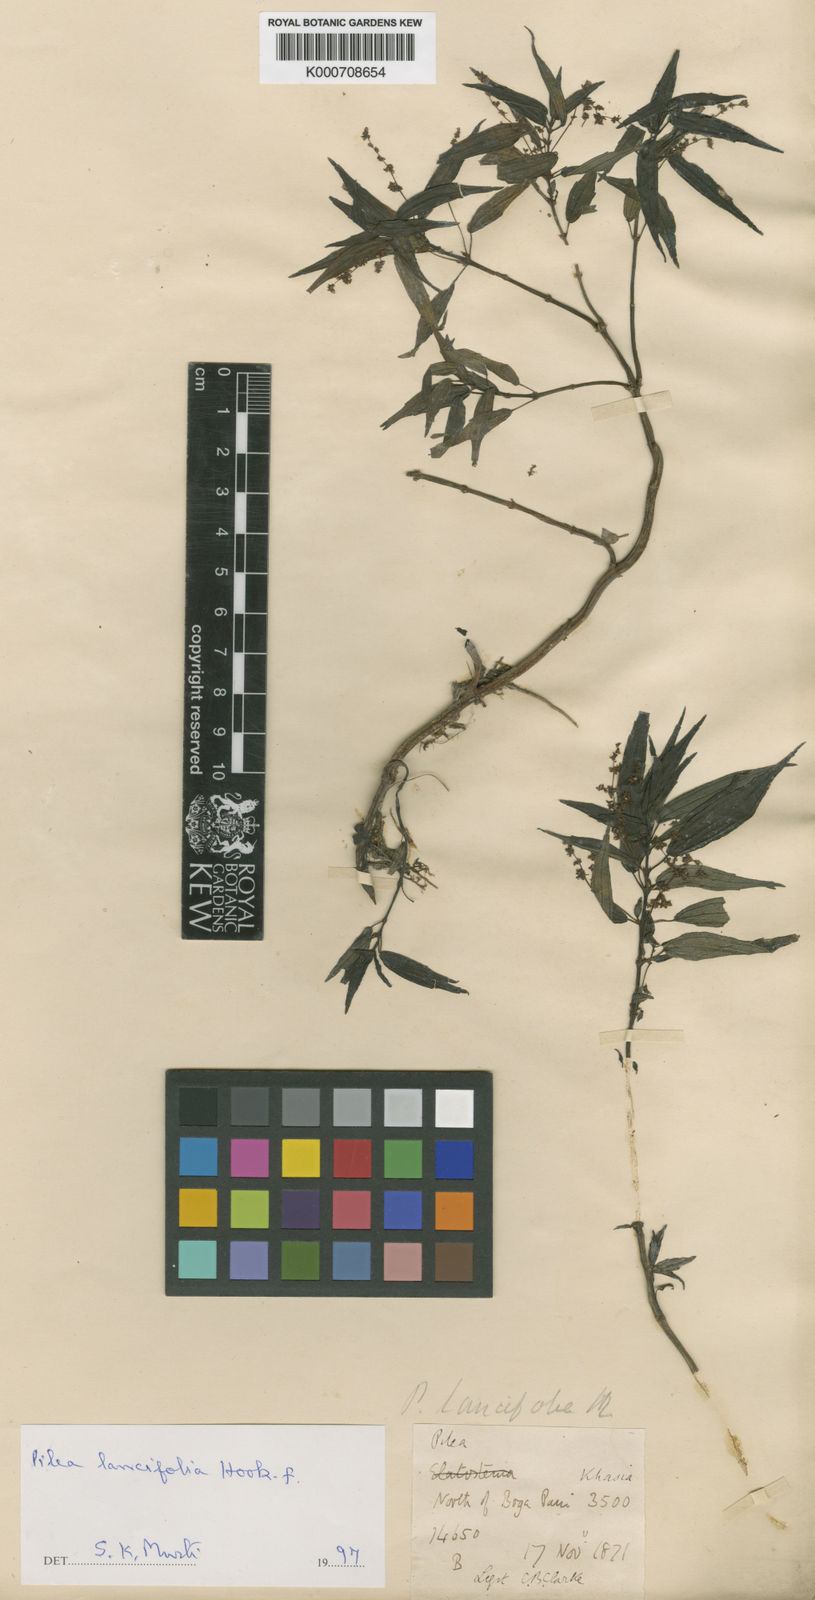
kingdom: Plantae
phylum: Tracheophyta
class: Magnoliopsida
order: Rosales
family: Urticaceae
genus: Pilea
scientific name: Pilea lancifolia
